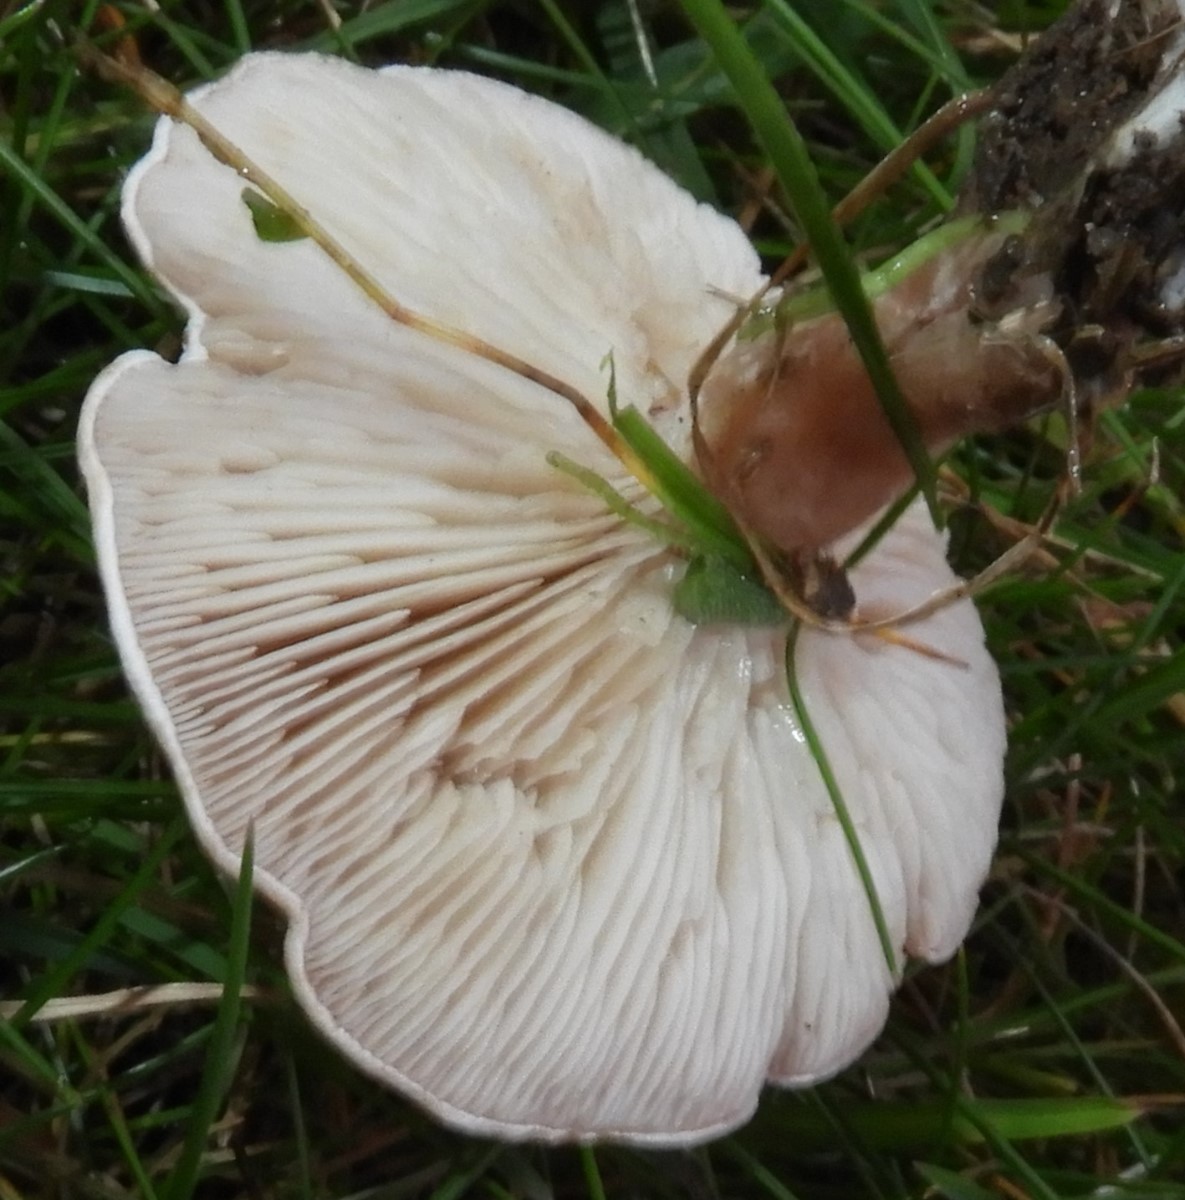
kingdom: Fungi
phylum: Basidiomycota
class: Agaricomycetes
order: Agaricales
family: Tricholomataceae
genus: Clitocybe
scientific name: Clitocybe rivulosa
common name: eng-tragthat
